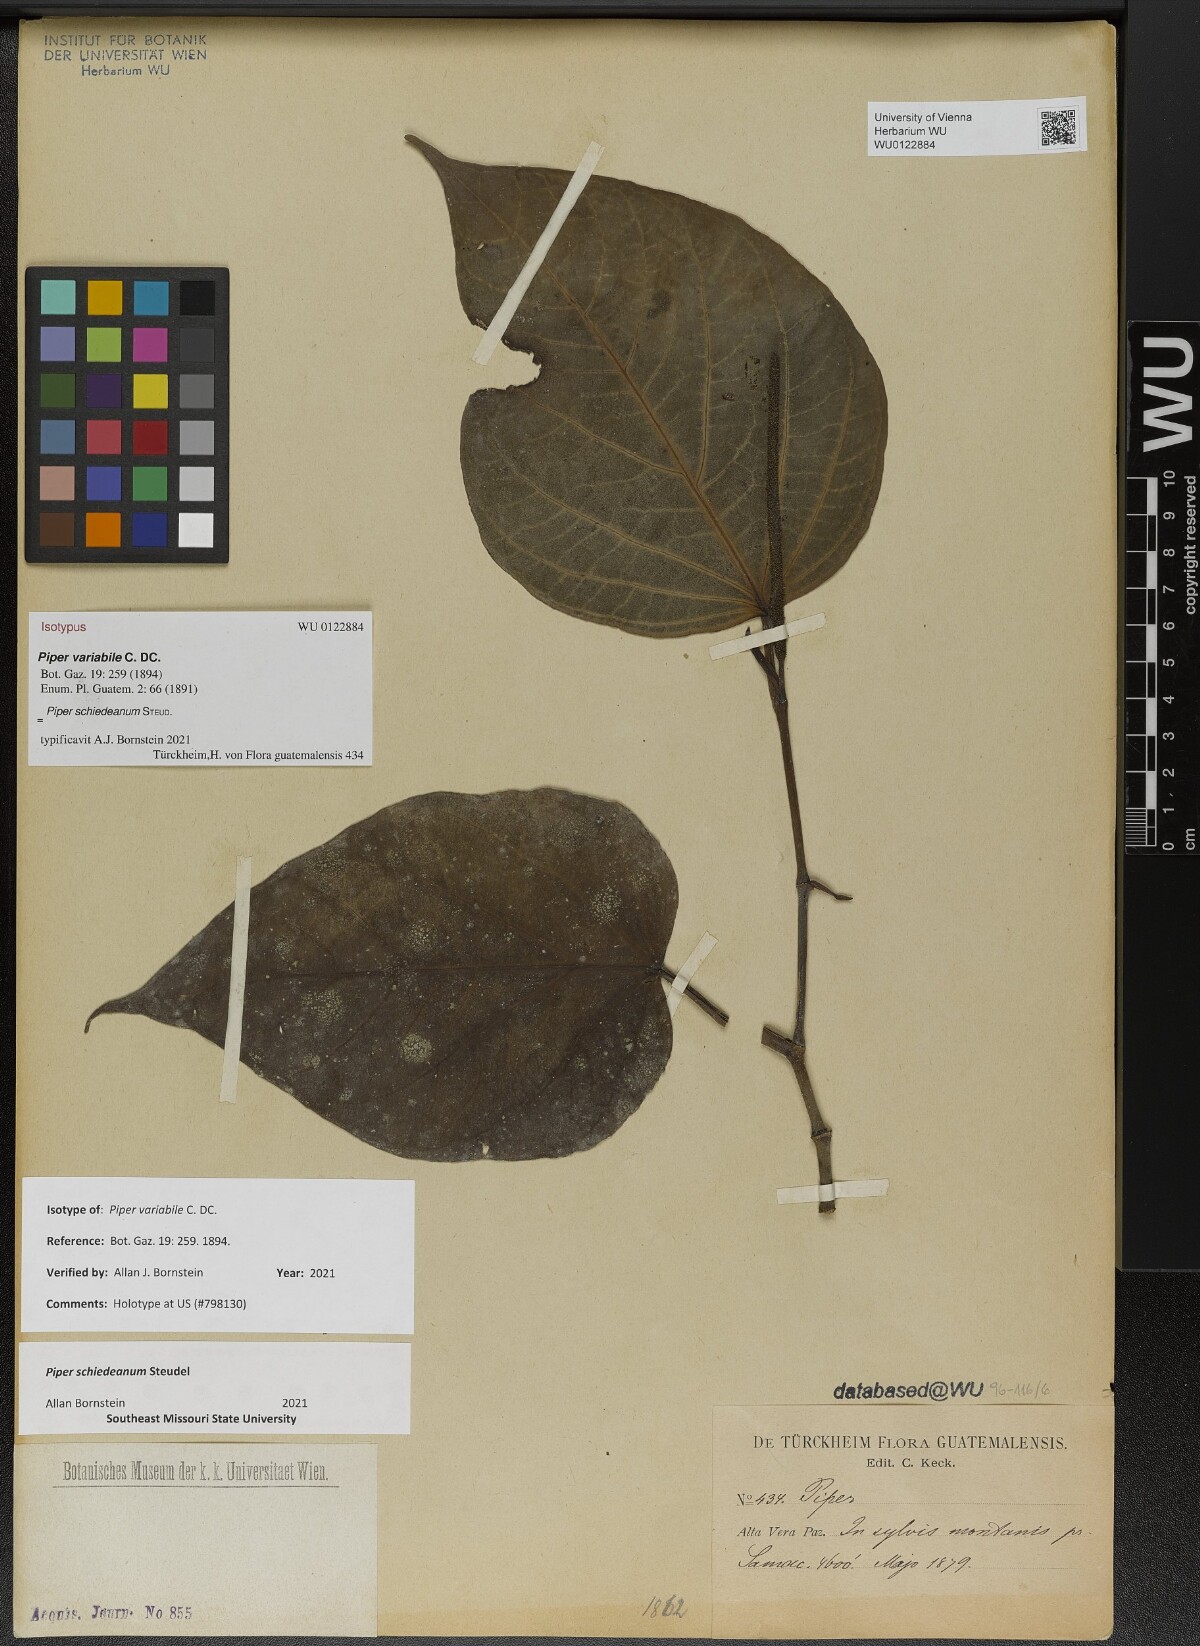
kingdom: Plantae
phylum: Tracheophyta
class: Magnoliopsida
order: Piperales
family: Piperaceae
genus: Piper
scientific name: Piper variabile
